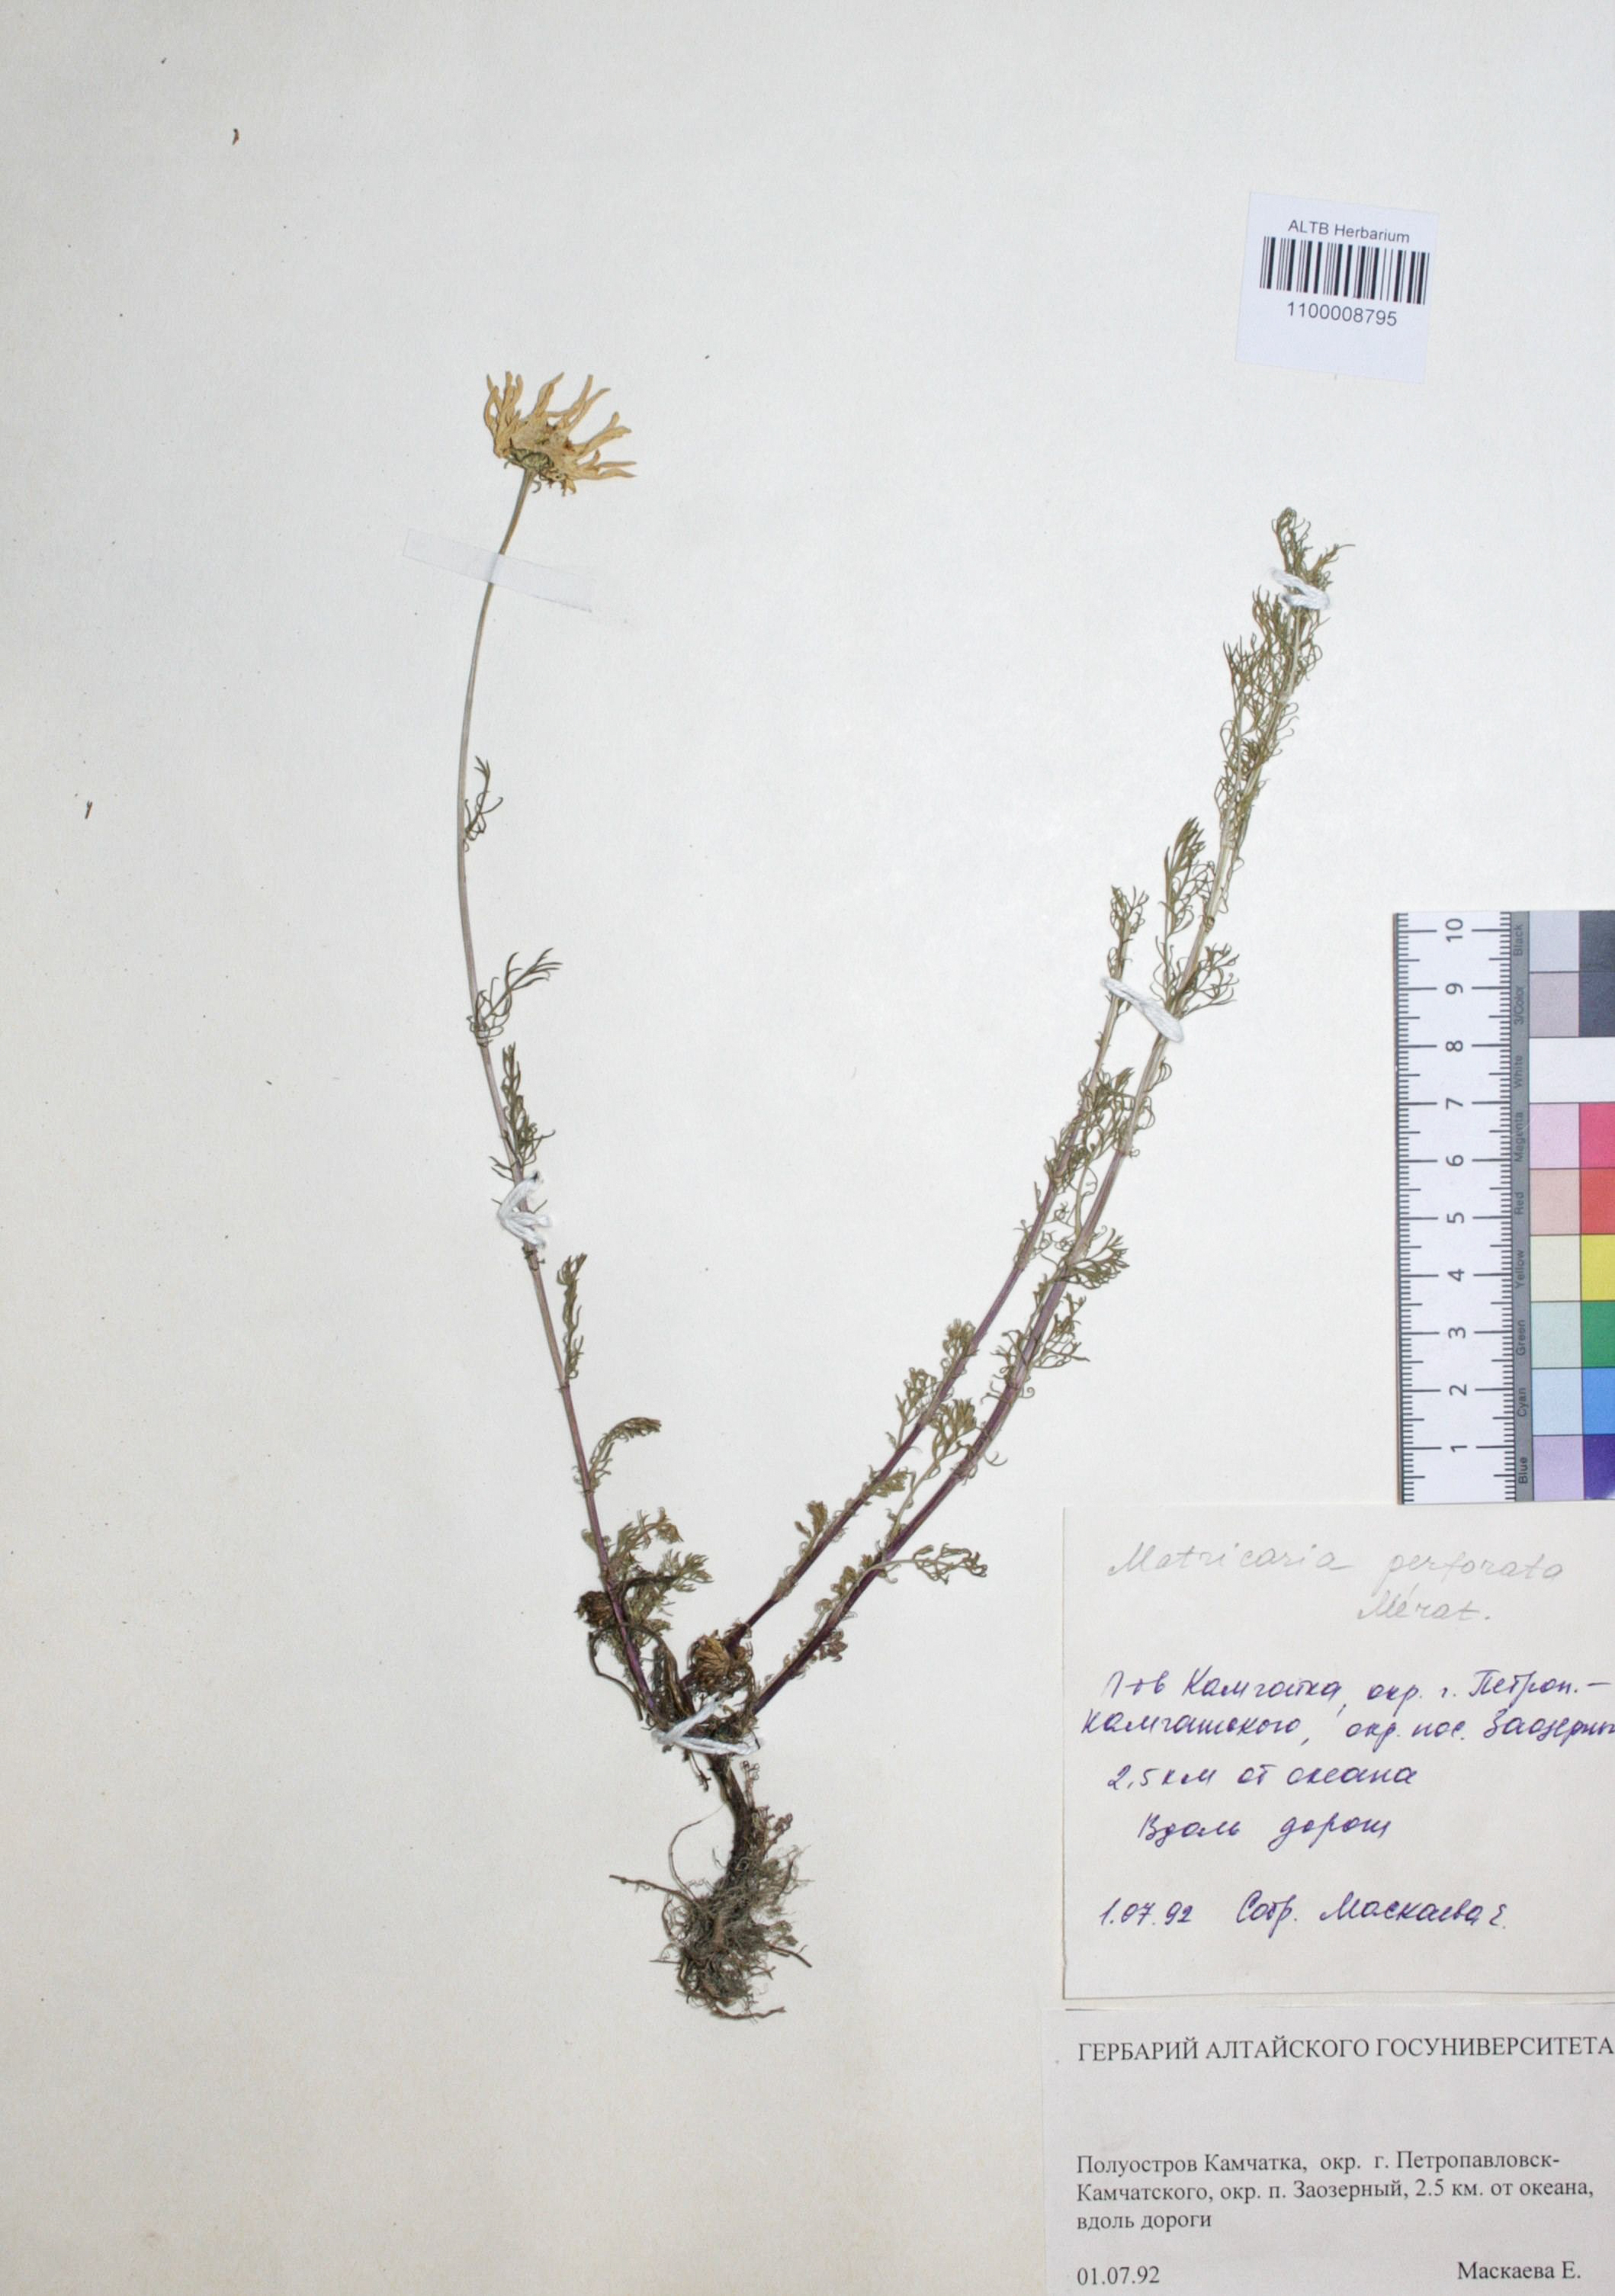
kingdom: Plantae
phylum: Tracheophyta
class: Magnoliopsida
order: Asterales
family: Asteraceae
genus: Tripleurospermum
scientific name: Tripleurospermum inodorum
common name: Scentless mayweed
